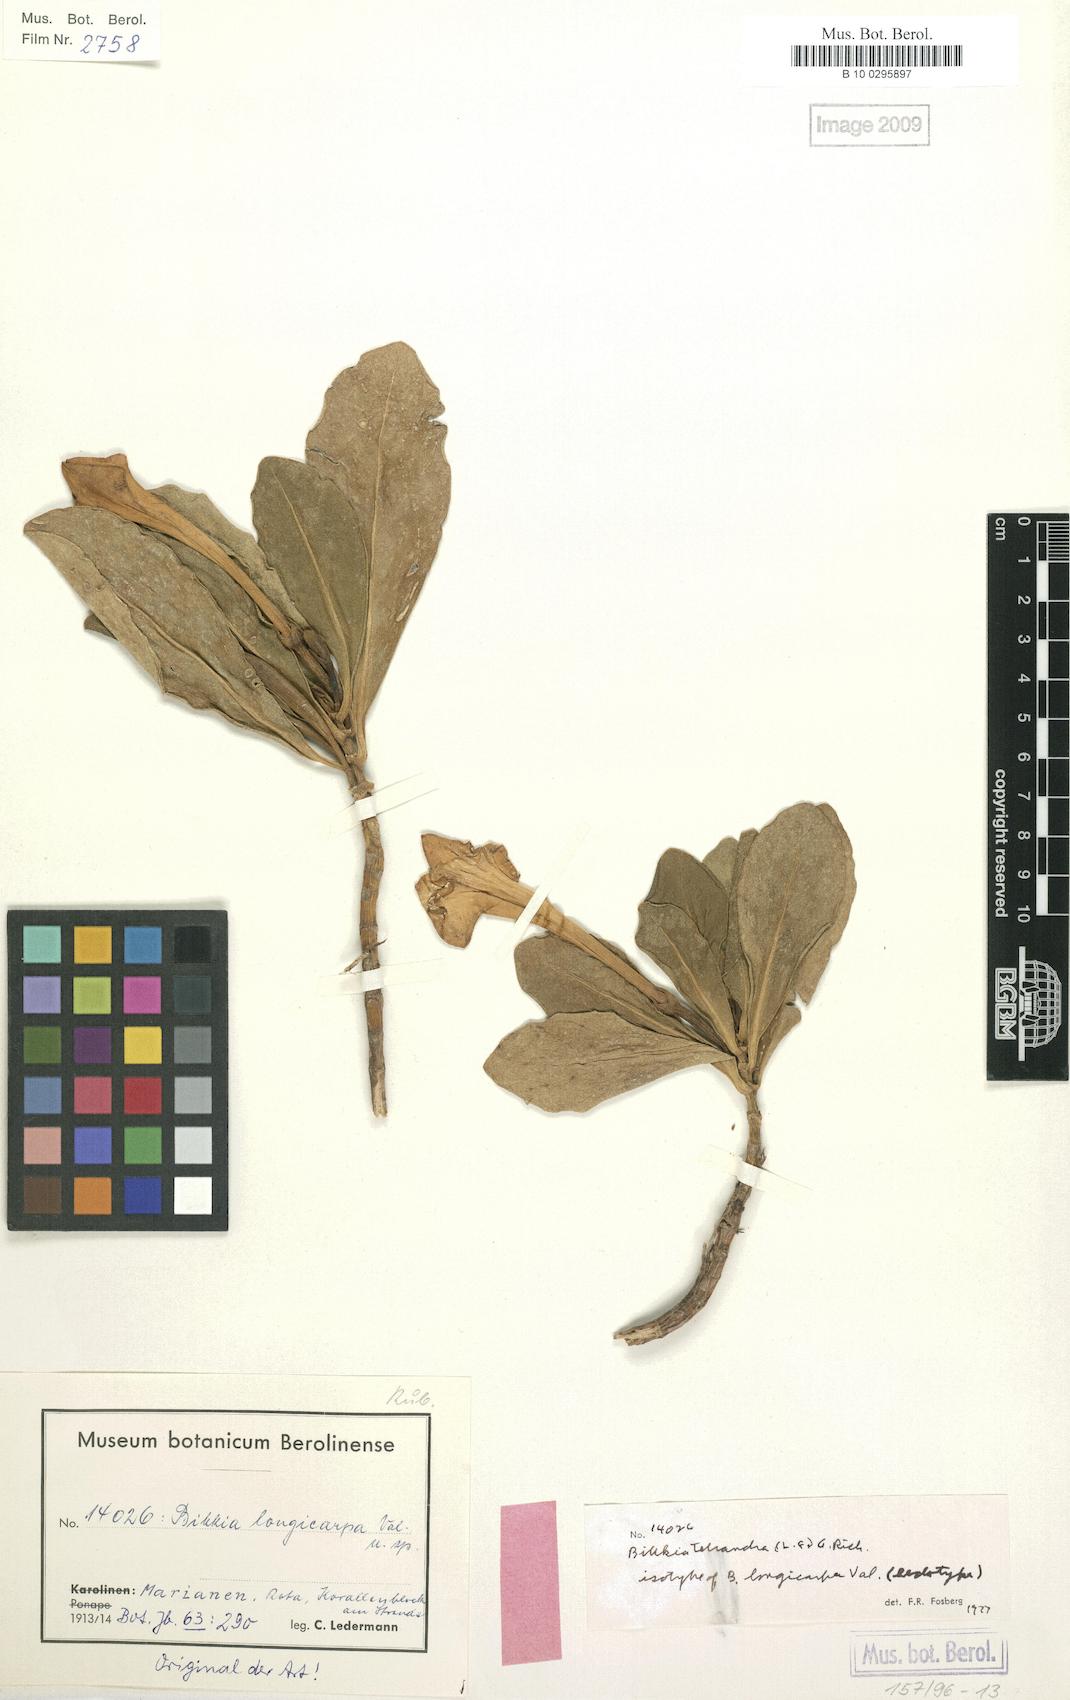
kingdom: Plantae
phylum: Tracheophyta
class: Magnoliopsida
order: Gentianales
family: Rubiaceae
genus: Bikkia
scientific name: Bikkia tetrandra
